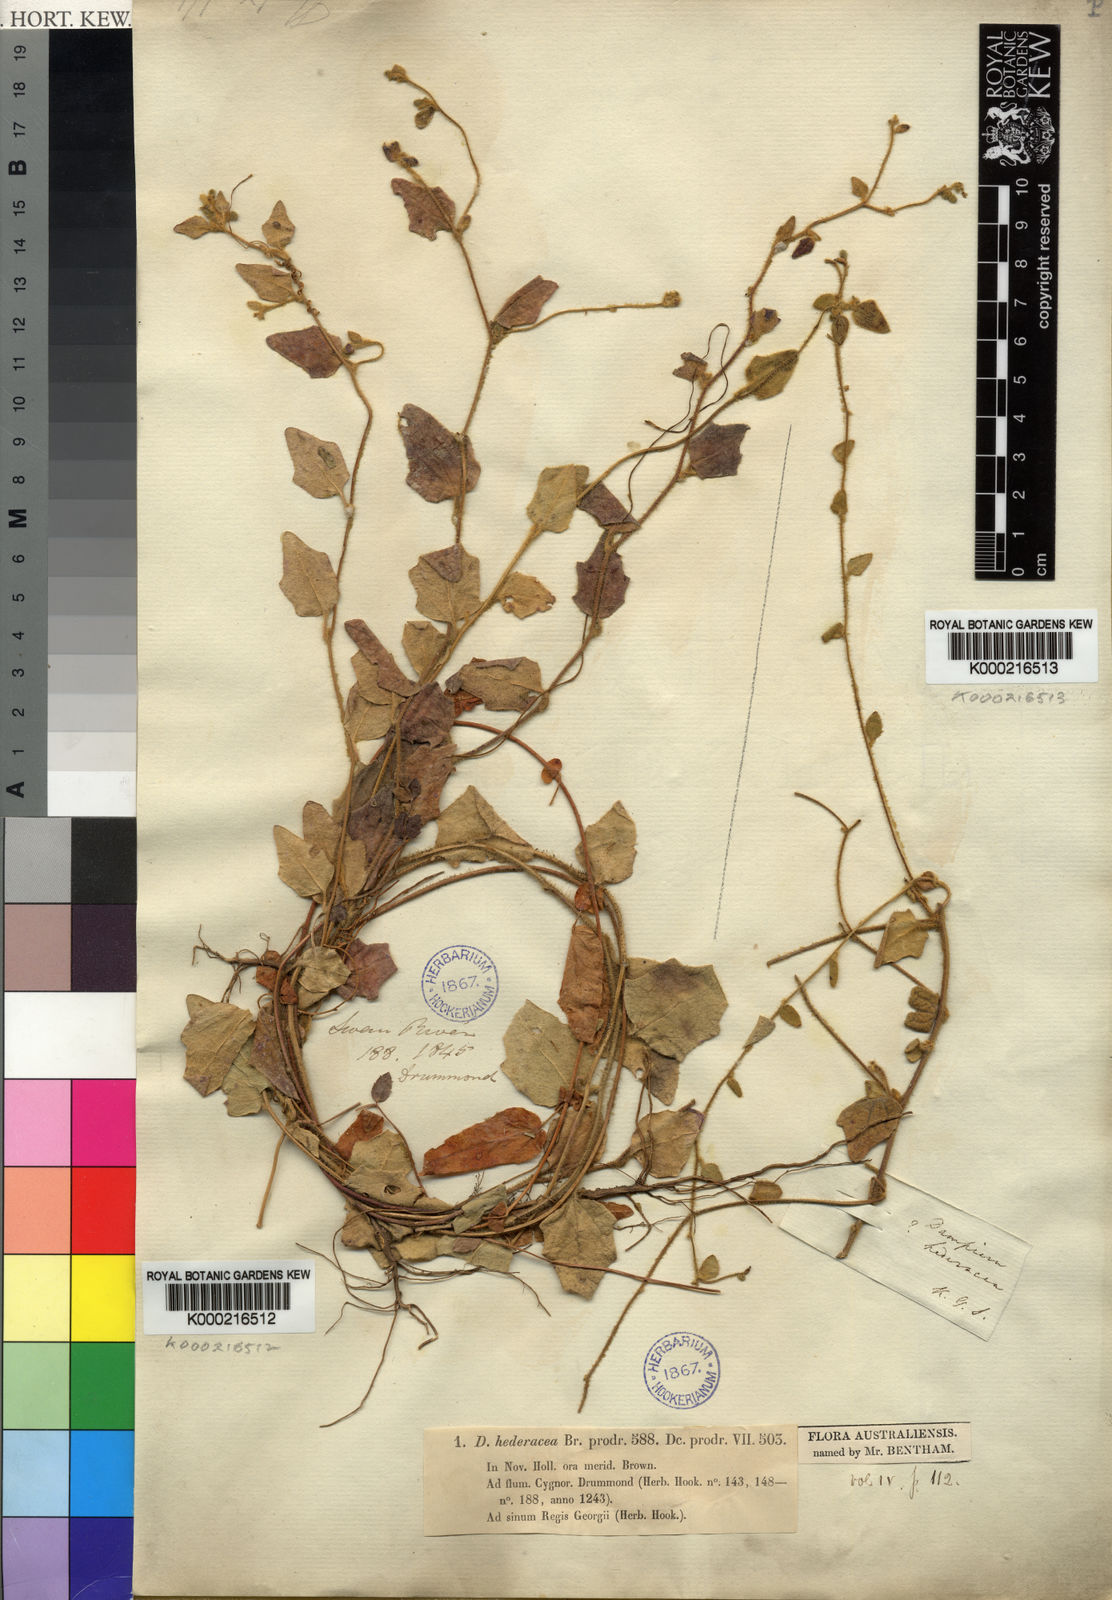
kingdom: Plantae
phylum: Tracheophyta
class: Magnoliopsida
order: Asterales
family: Goodeniaceae
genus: Dampiera
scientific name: Dampiera hederacea
